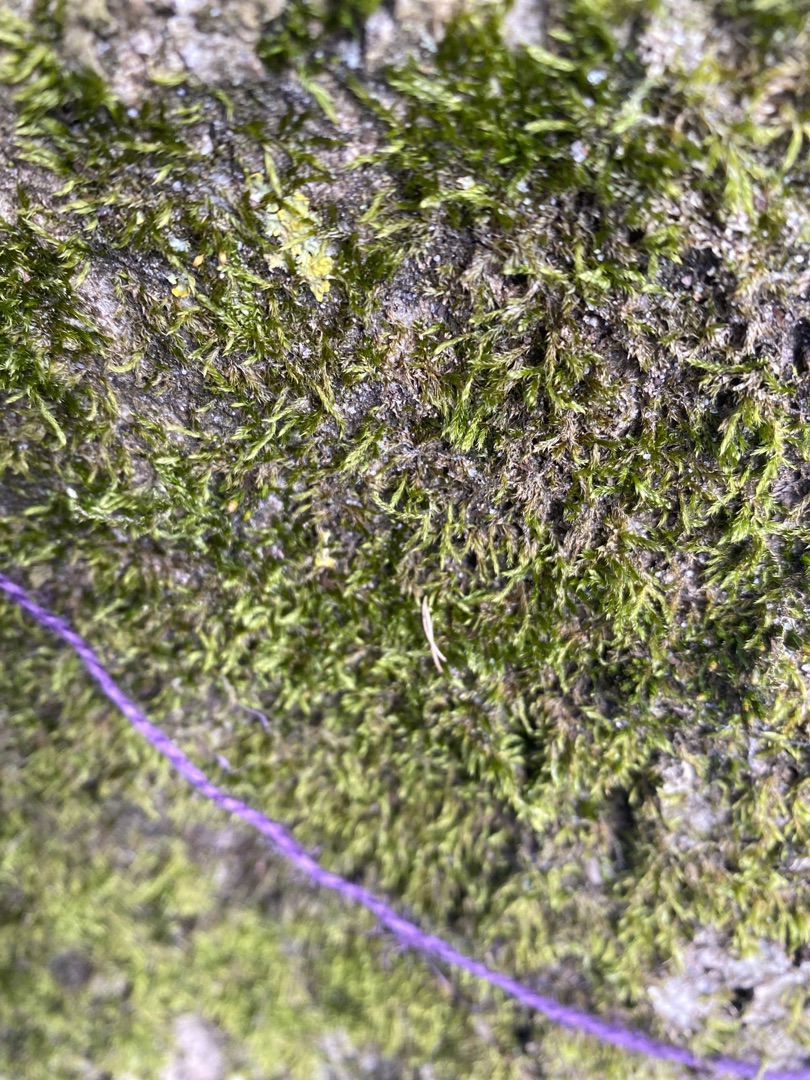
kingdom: Plantae
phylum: Bryophyta
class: Bryopsida
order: Hypnales
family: Hypnaceae
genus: Hypnum
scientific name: Hypnum
